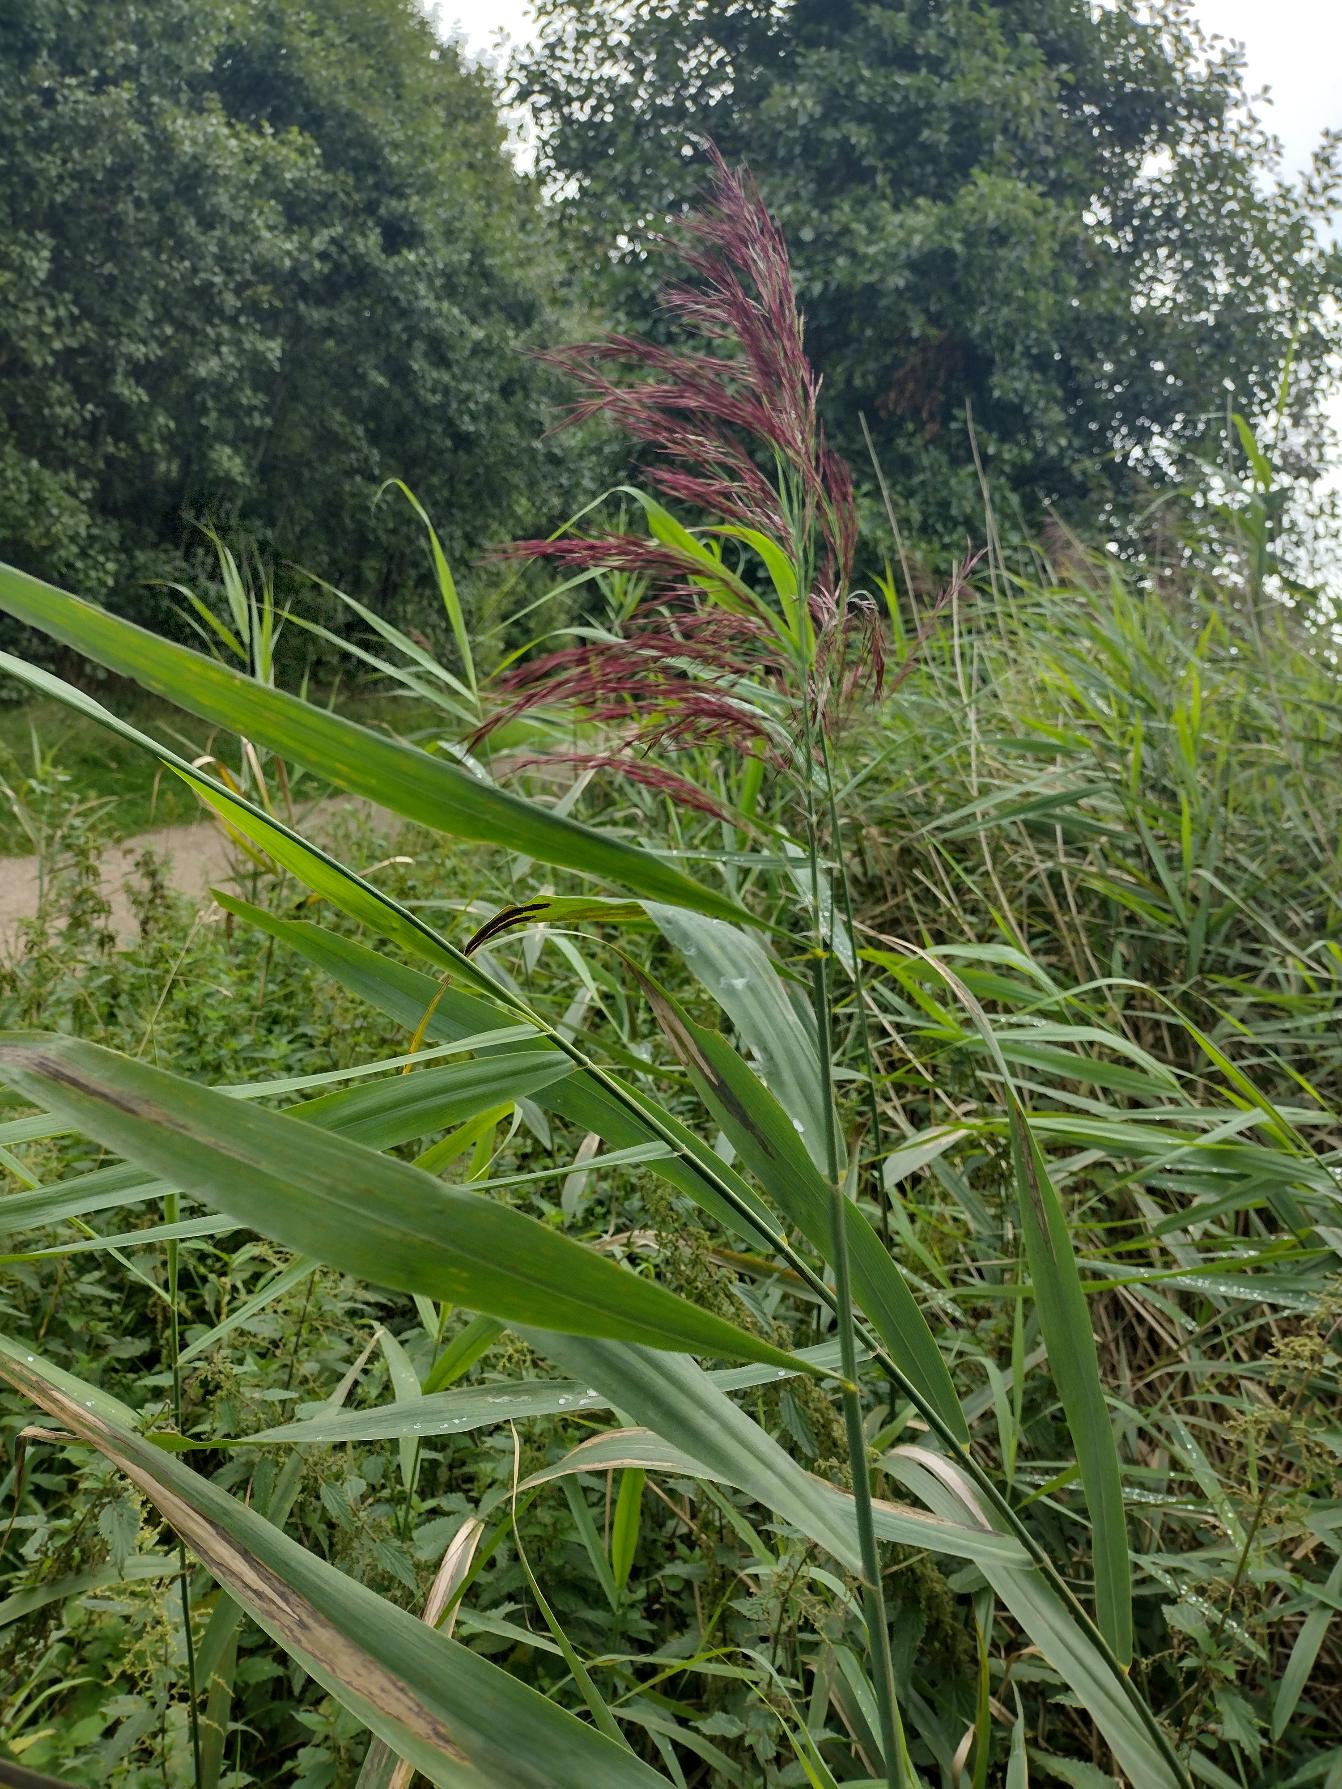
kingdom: Plantae
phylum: Tracheophyta
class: Liliopsida
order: Poales
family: Poaceae
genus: Phragmites
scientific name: Phragmites australis
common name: Tagrør
